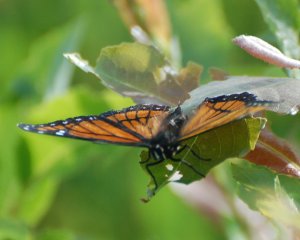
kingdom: Animalia
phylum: Arthropoda
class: Insecta
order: Lepidoptera
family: Nymphalidae
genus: Limenitis
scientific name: Limenitis archippus
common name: Viceroy
